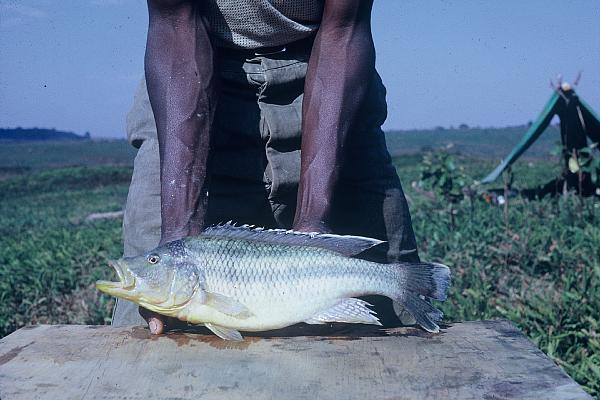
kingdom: Animalia
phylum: Chordata
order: Perciformes
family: Cichlidae
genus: Serranochromis
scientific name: Serranochromis thumbergi
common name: Brownspot largemouth
